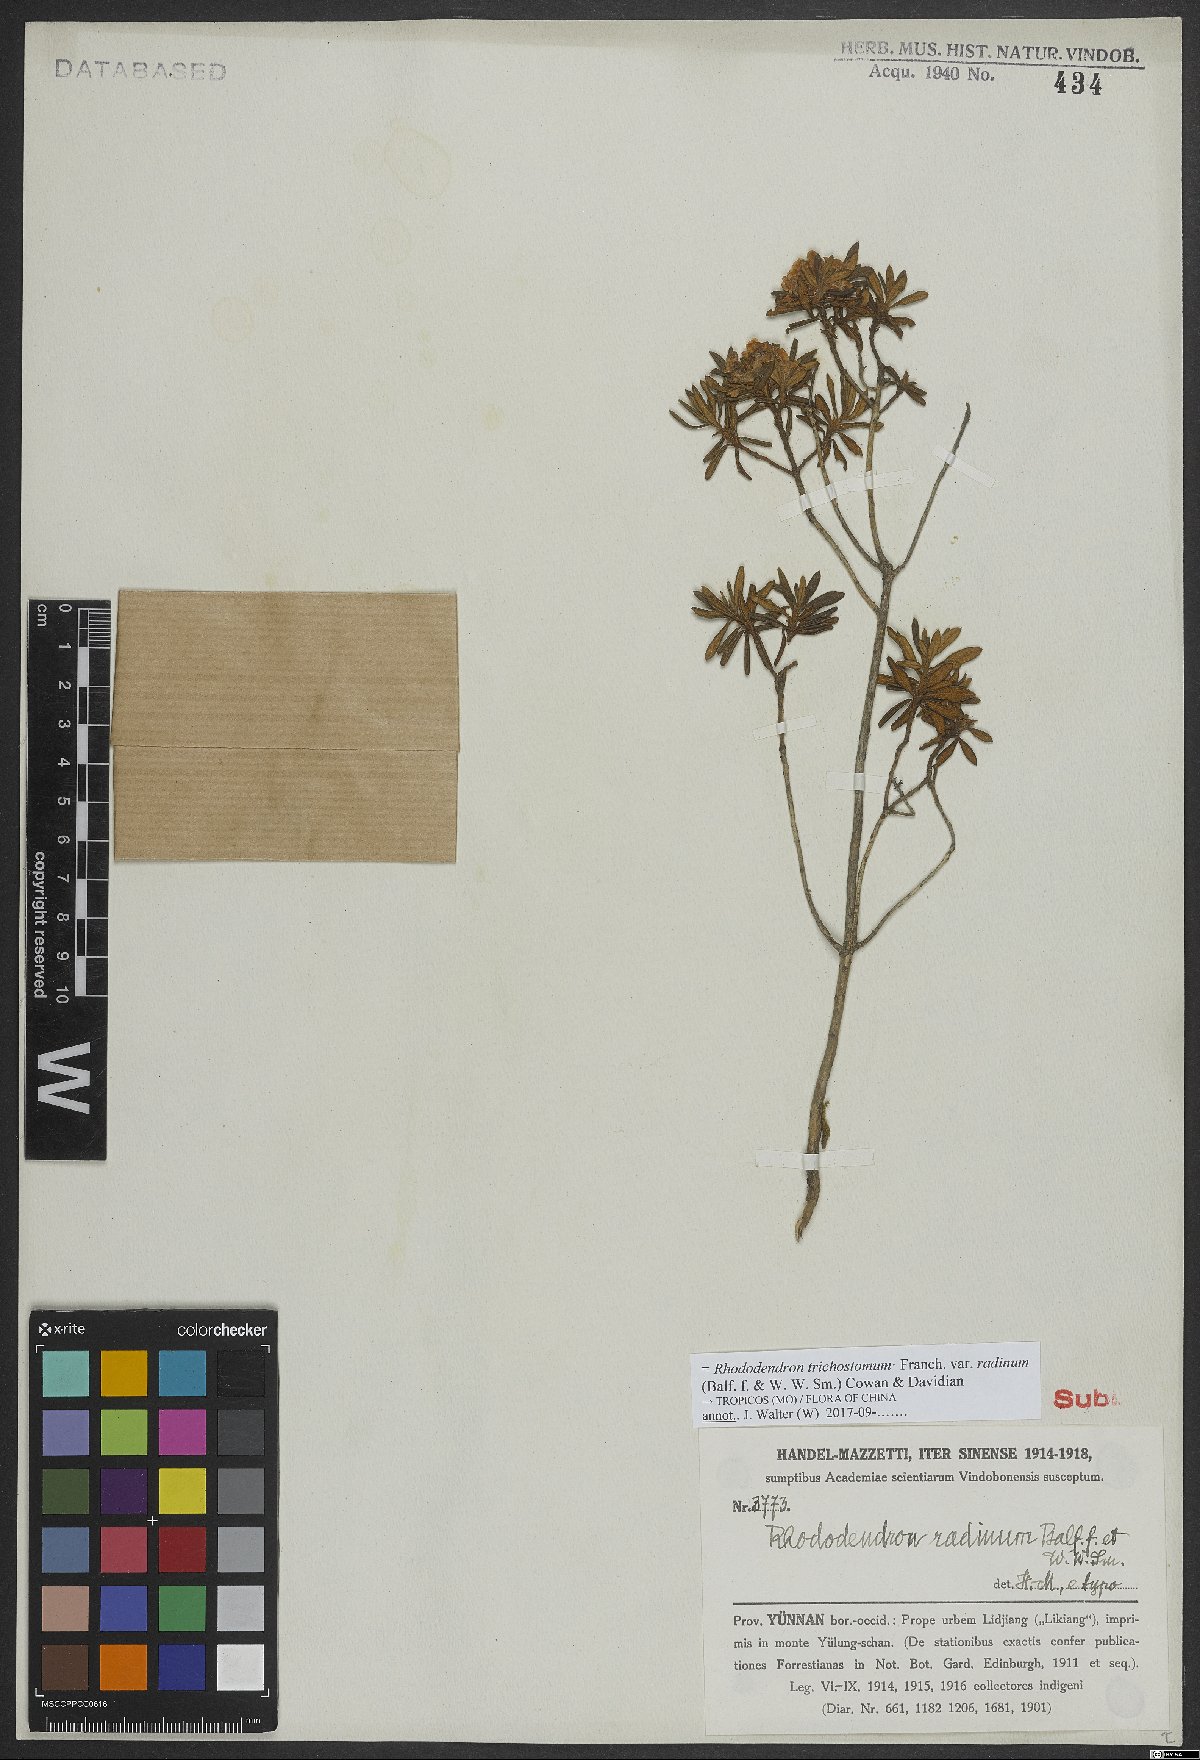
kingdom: Plantae
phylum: Tracheophyta
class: Magnoliopsida
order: Ericales
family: Ericaceae
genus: Rhododendron
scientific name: Rhododendron trichostomum
